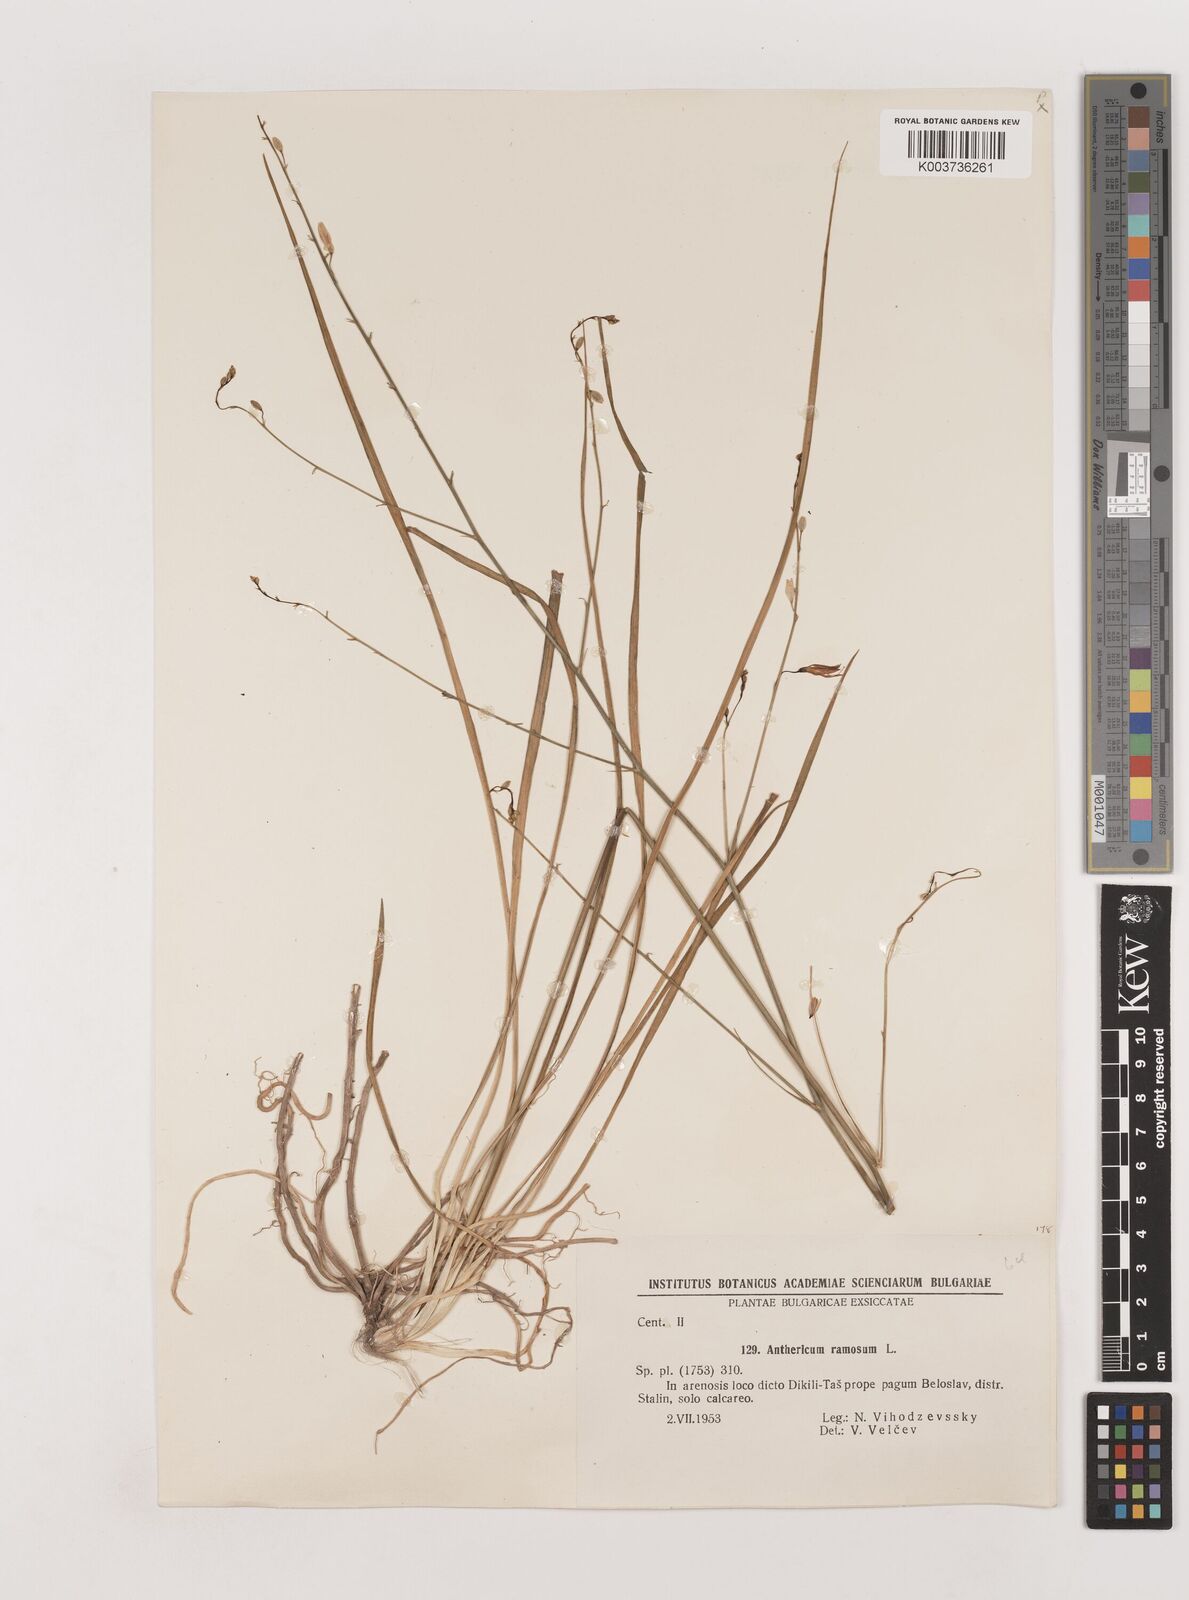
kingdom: Plantae
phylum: Tracheophyta
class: Liliopsida
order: Asparagales
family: Asparagaceae
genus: Anthericum
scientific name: Anthericum ramosum
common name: Branched st. bernard's-lily
